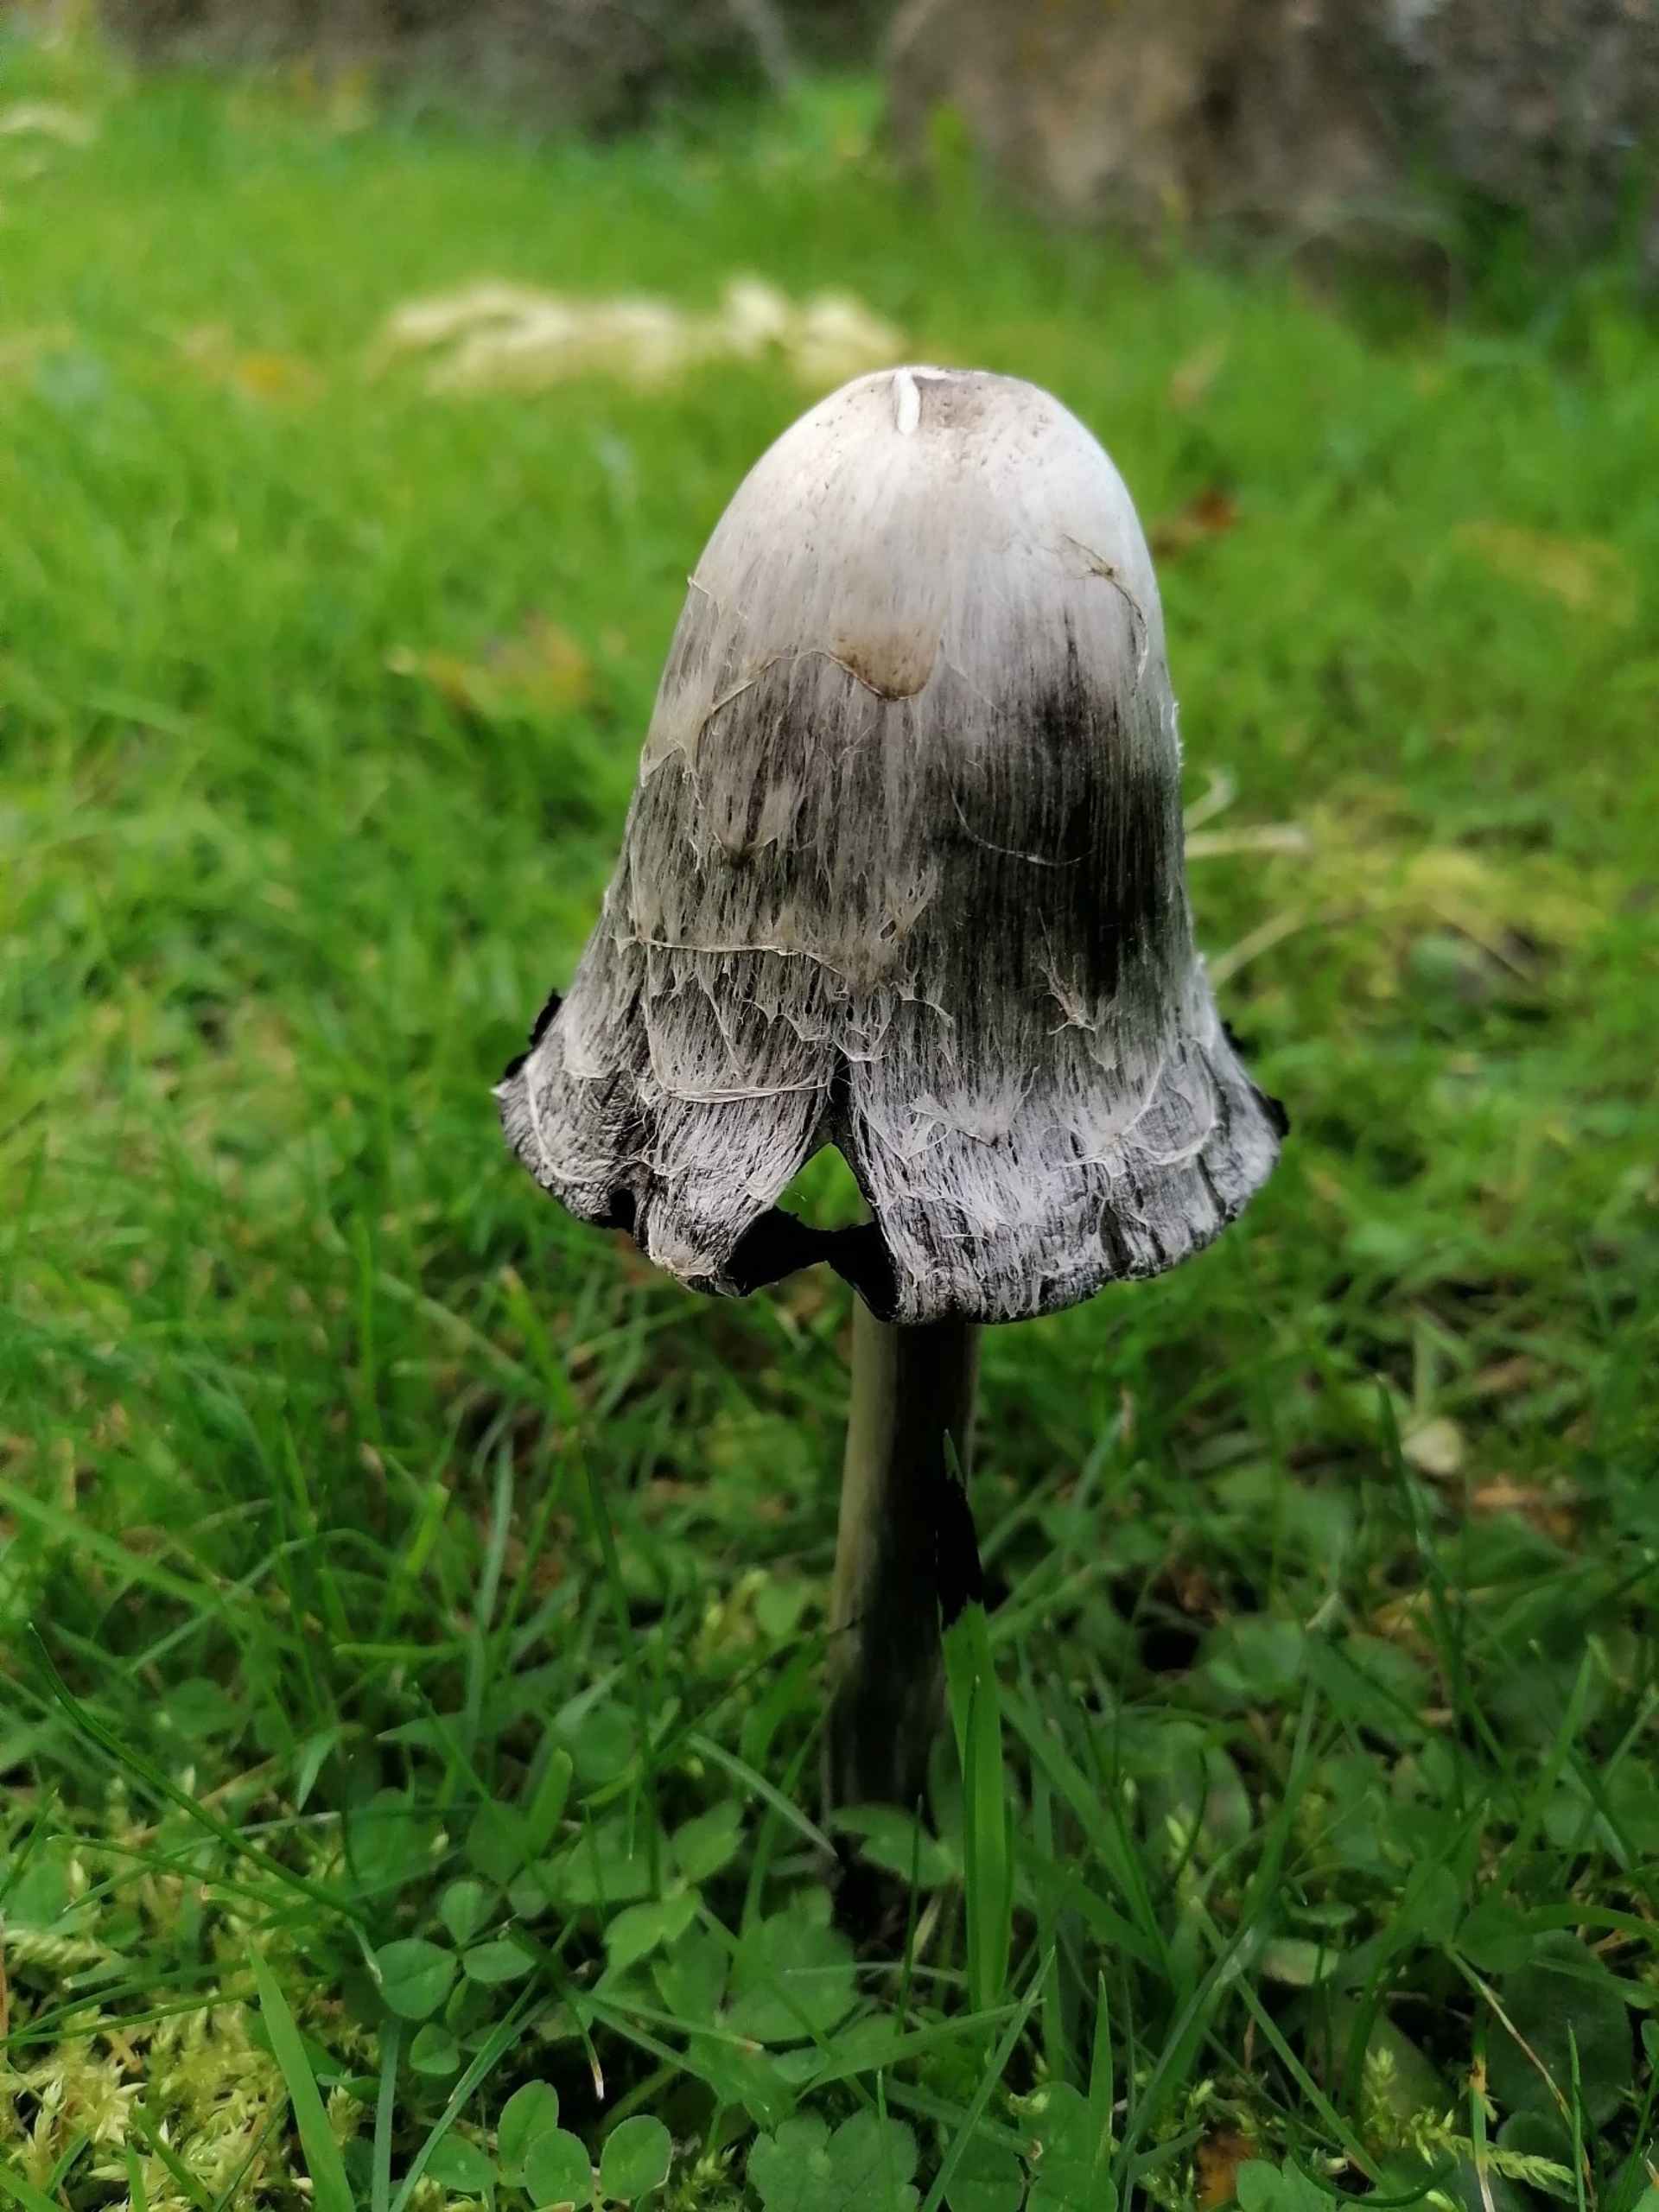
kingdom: Fungi
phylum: Basidiomycota
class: Agaricomycetes
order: Agaricales
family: Agaricaceae
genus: Coprinus
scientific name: Coprinus comatus
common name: Stor parykhat
